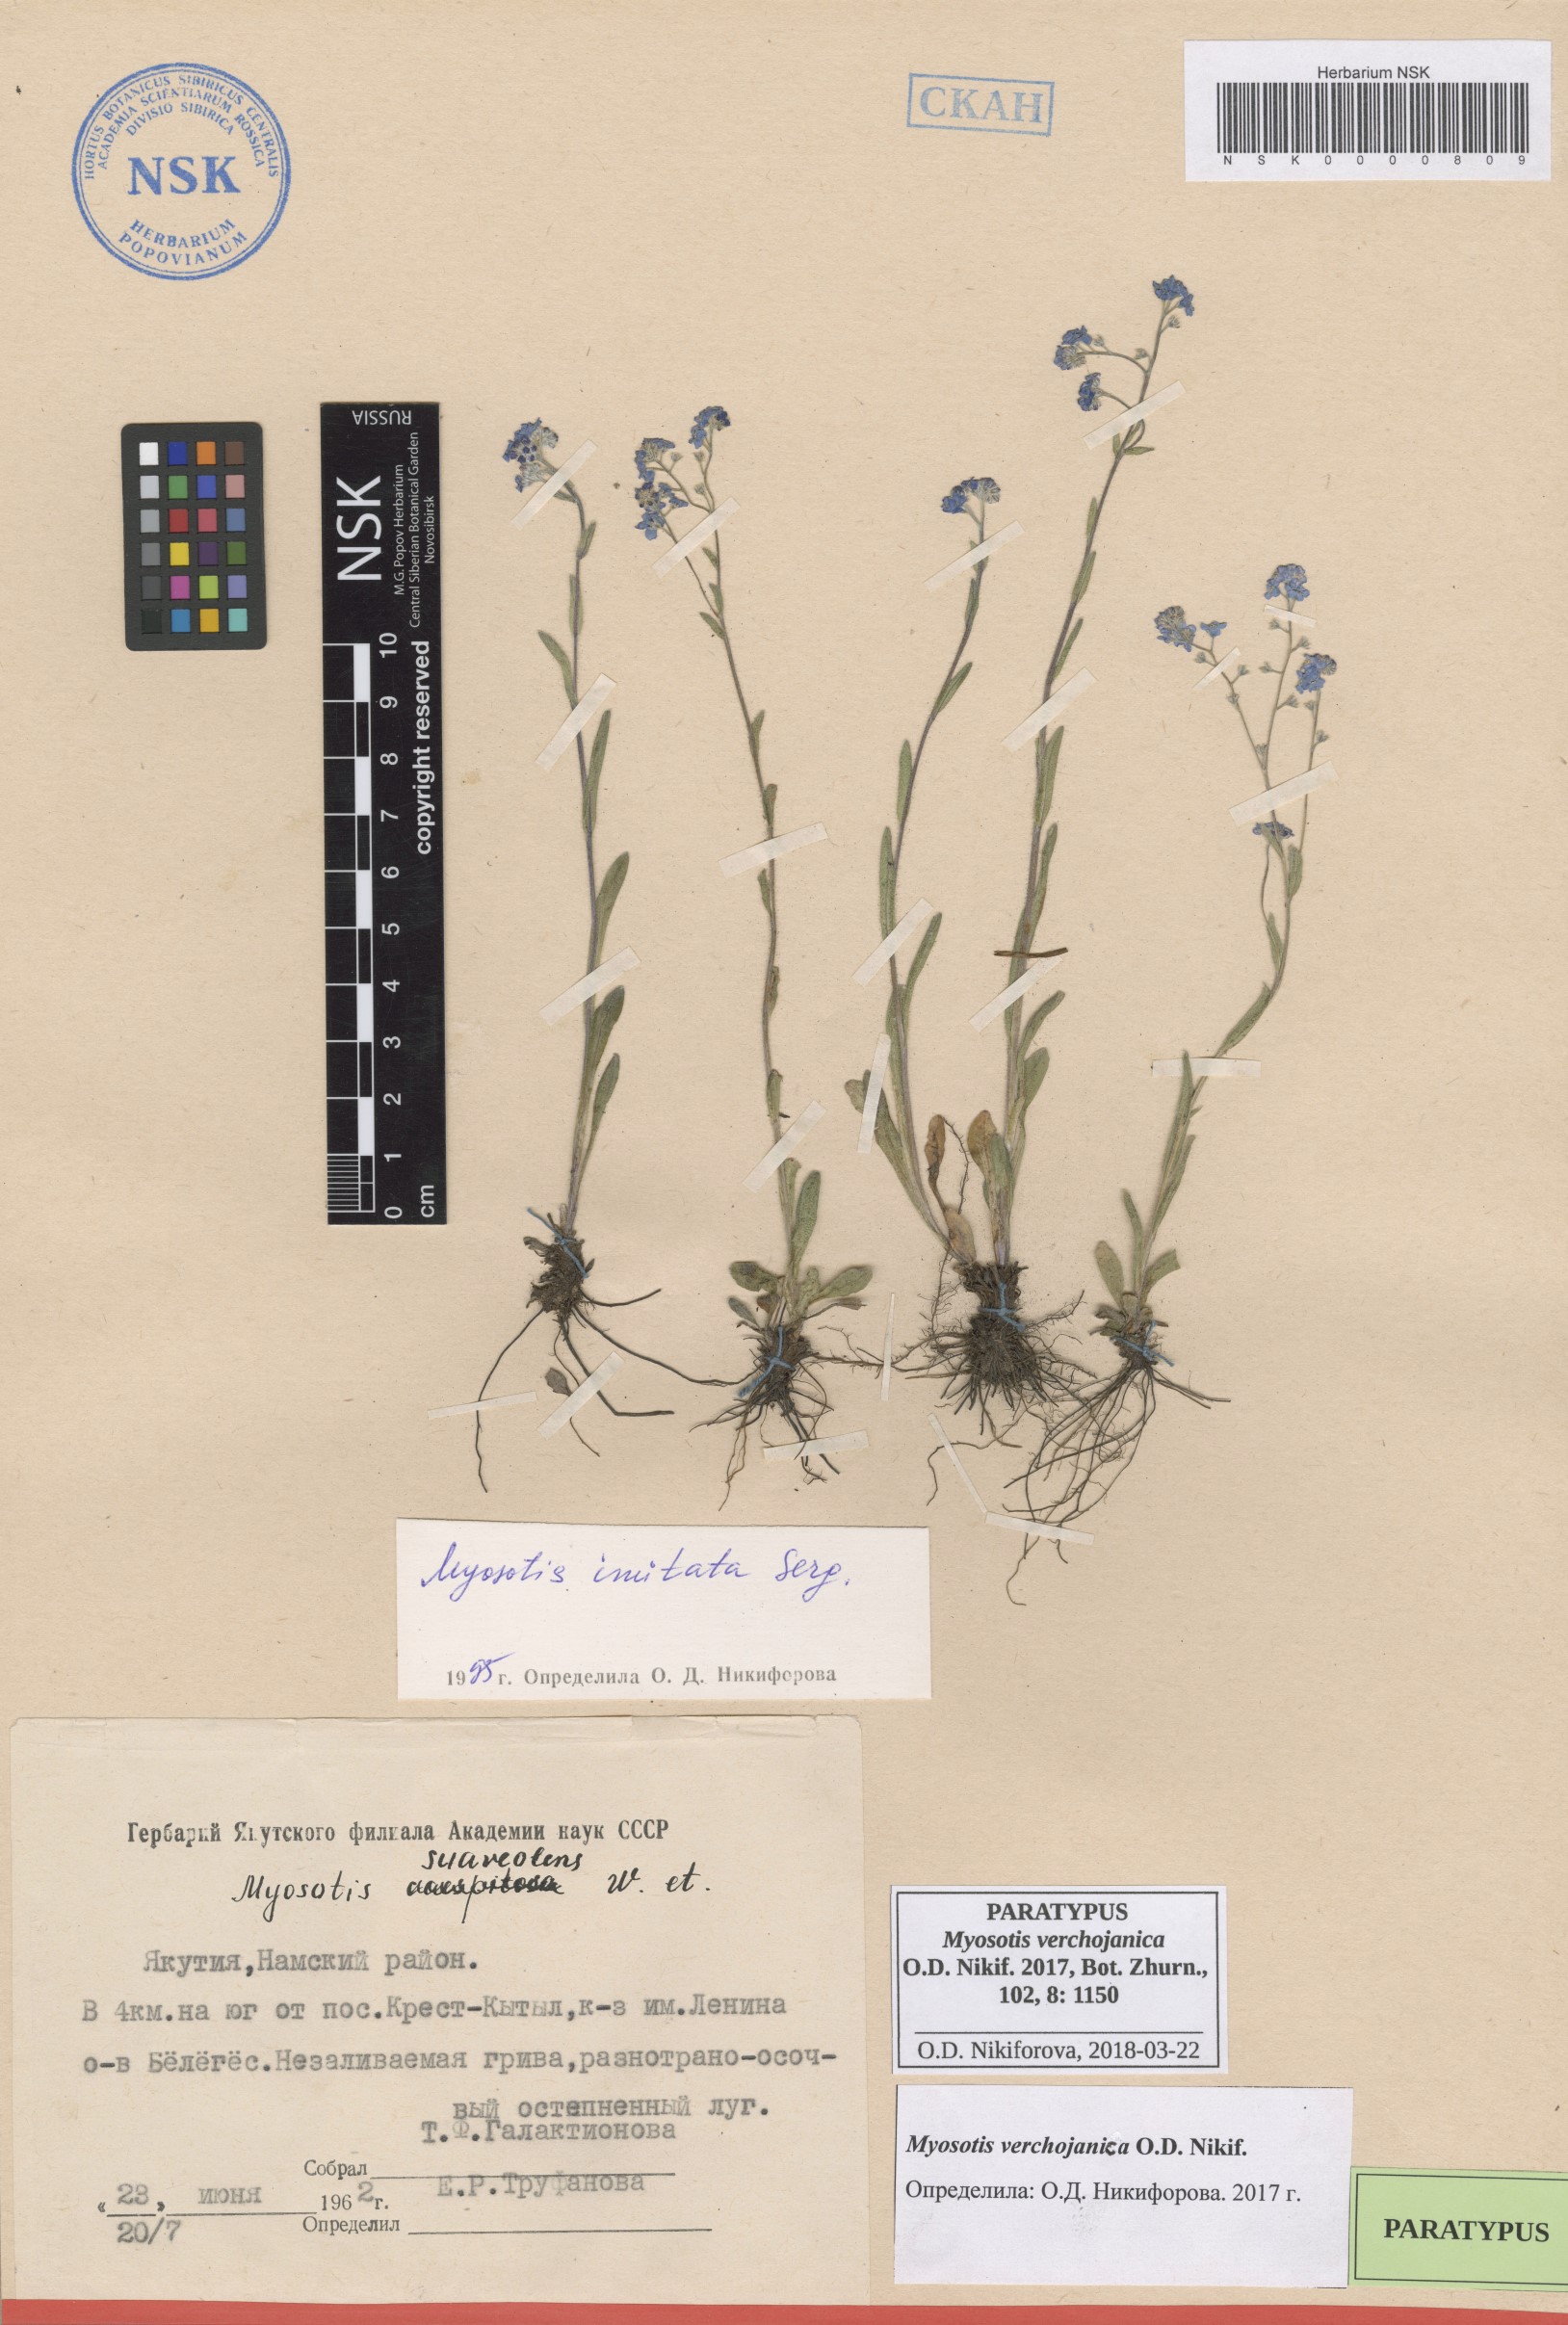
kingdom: Plantae
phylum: Tracheophyta
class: Magnoliopsida
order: Boraginales
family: Boraginaceae
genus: Myosotis
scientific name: Myosotis
